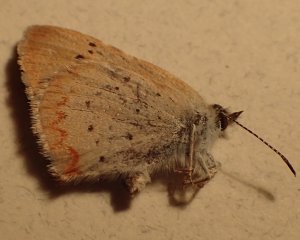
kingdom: Animalia
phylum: Arthropoda
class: Insecta
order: Lepidoptera
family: Lycaenidae
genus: Epidemia
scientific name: Epidemia dorcas
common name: Dorcas Copper
